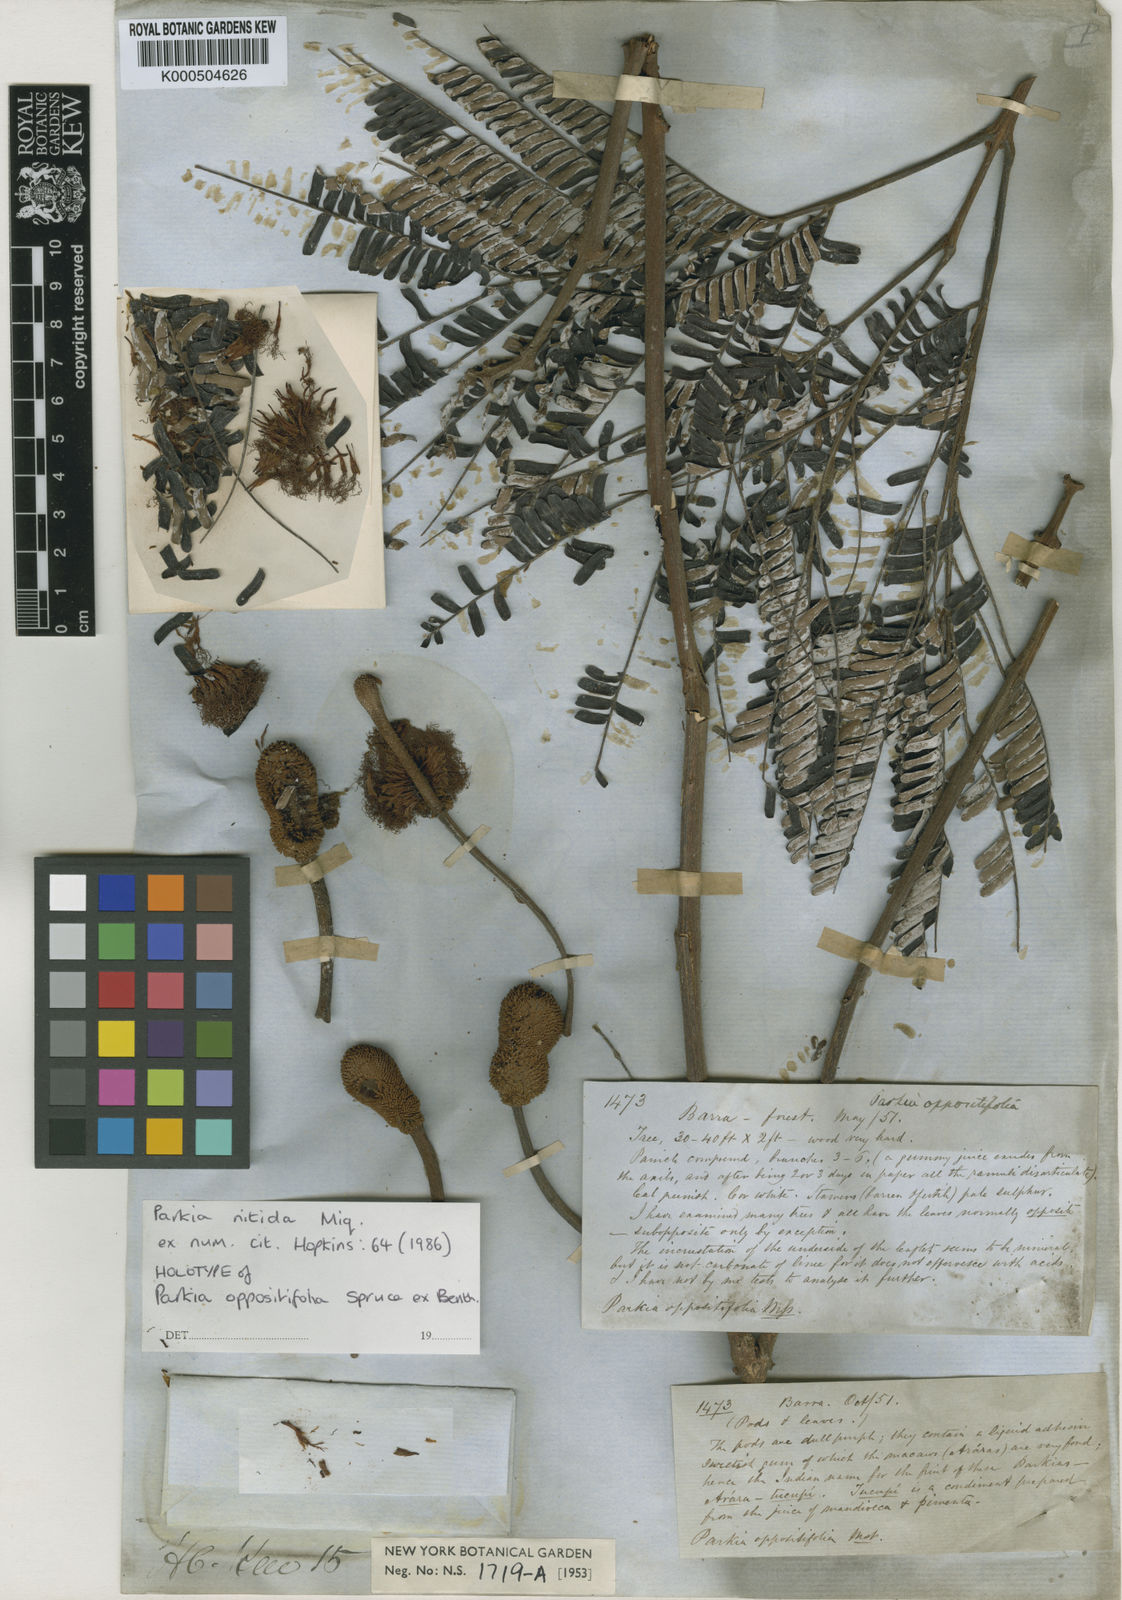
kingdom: Plantae
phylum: Tracheophyta
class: Magnoliopsida
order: Fabales
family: Fabaceae
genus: Parkia
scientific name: Parkia nitida
